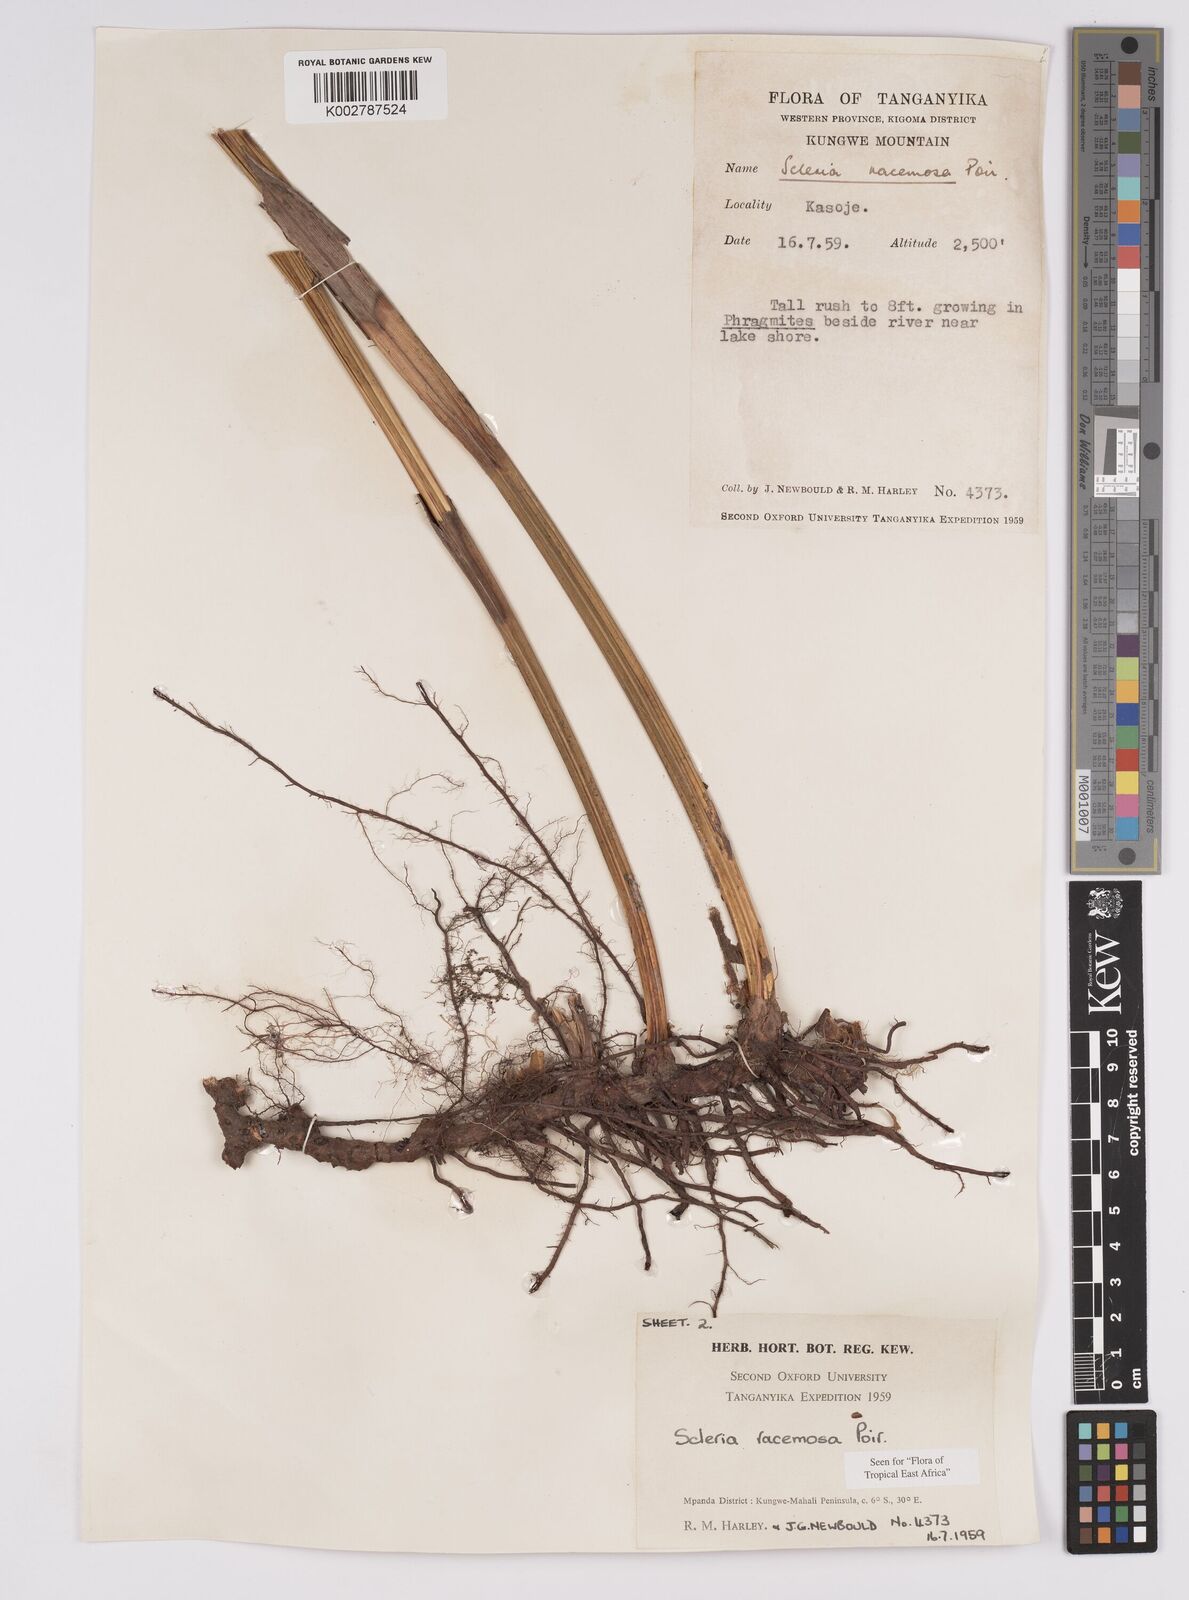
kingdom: Plantae
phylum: Tracheophyta
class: Liliopsida
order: Poales
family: Cyperaceae
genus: Scleria
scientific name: Scleria racemosa
